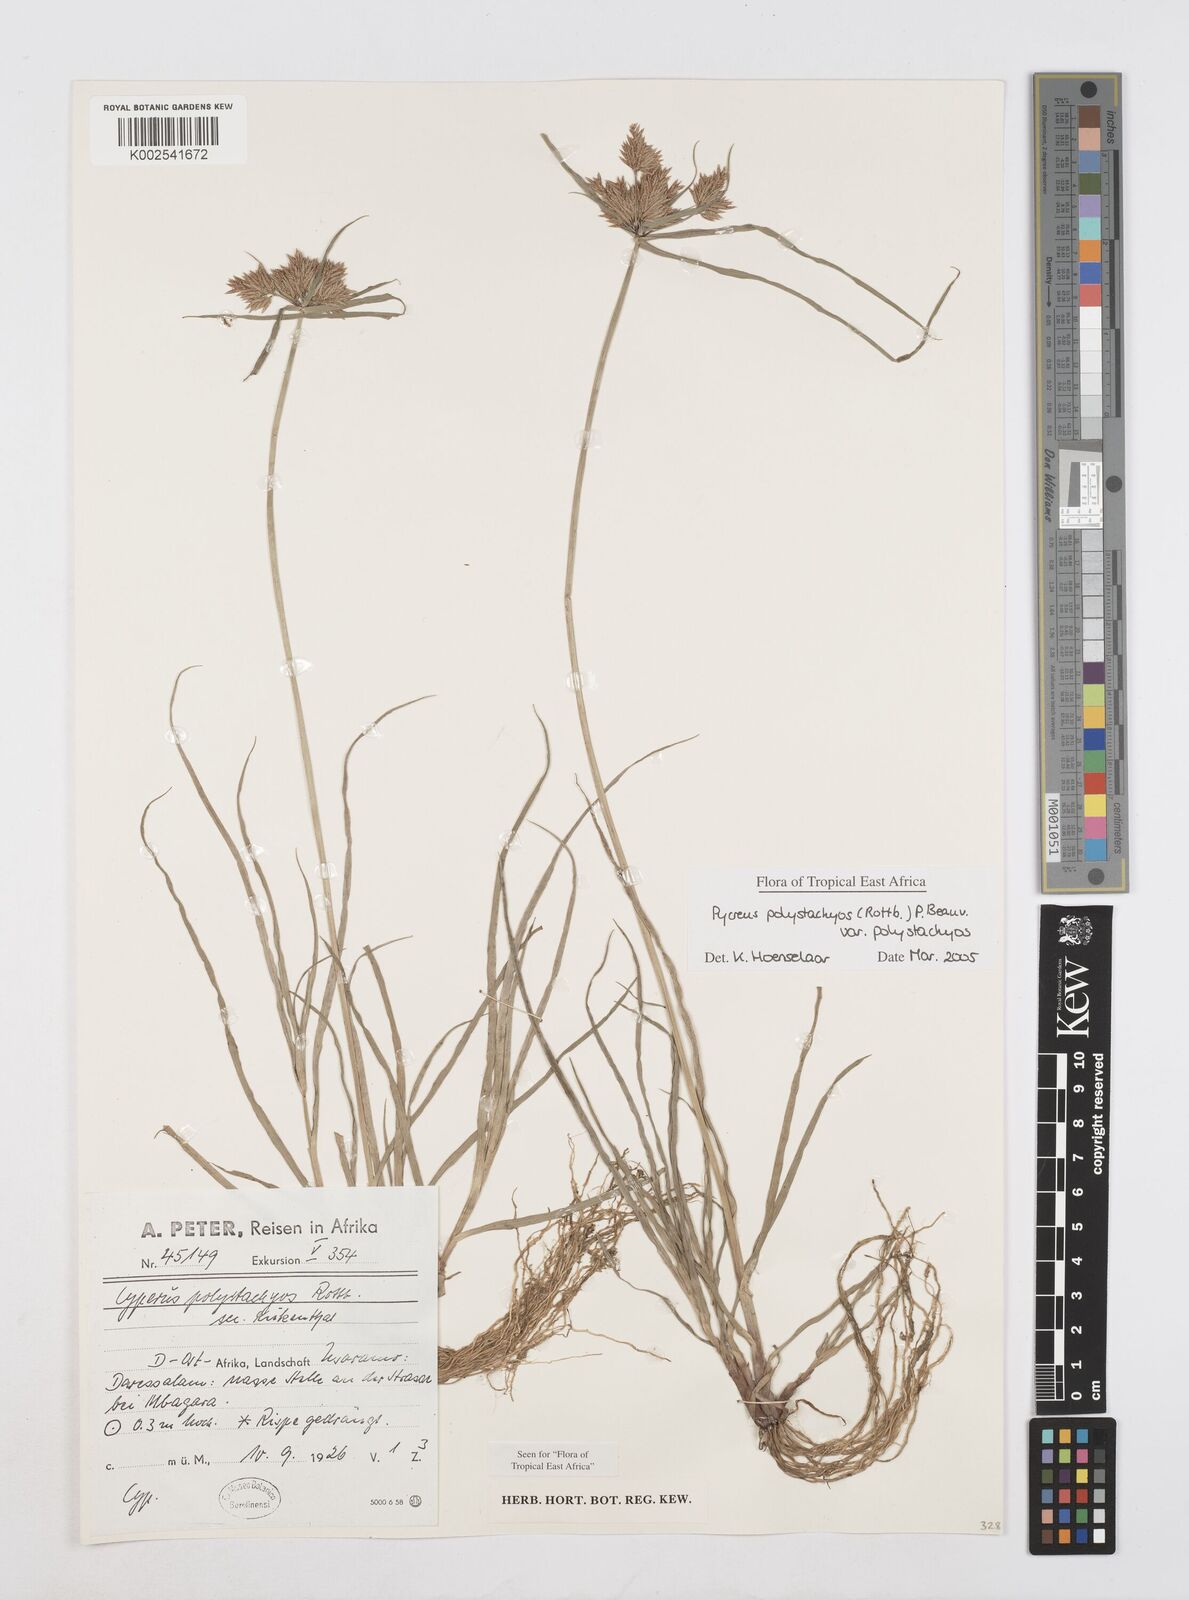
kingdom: Plantae
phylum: Tracheophyta
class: Liliopsida
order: Poales
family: Cyperaceae
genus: Cyperus
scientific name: Cyperus polystachyos
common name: Bunchy flat sedge
